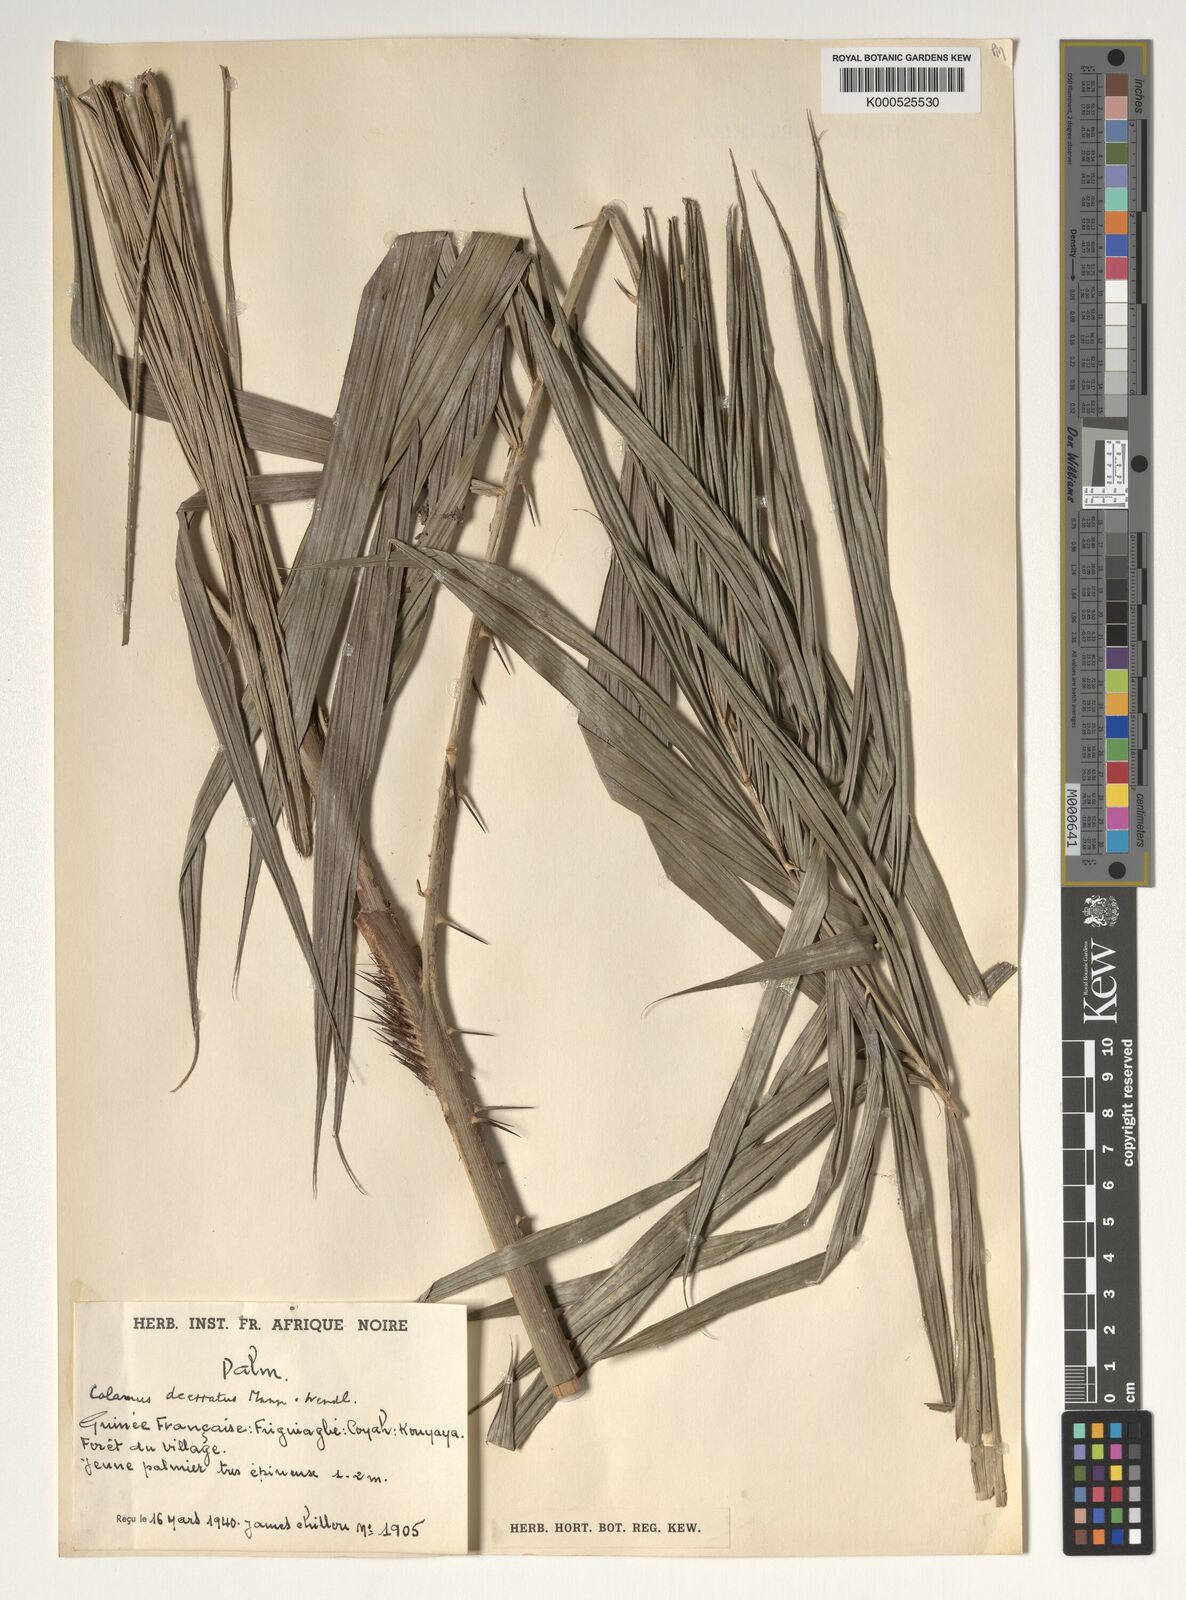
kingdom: Plantae
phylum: Tracheophyta
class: Liliopsida
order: Arecales
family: Arecaceae
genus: Calamus
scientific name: Calamus deerratus
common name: Rattan
